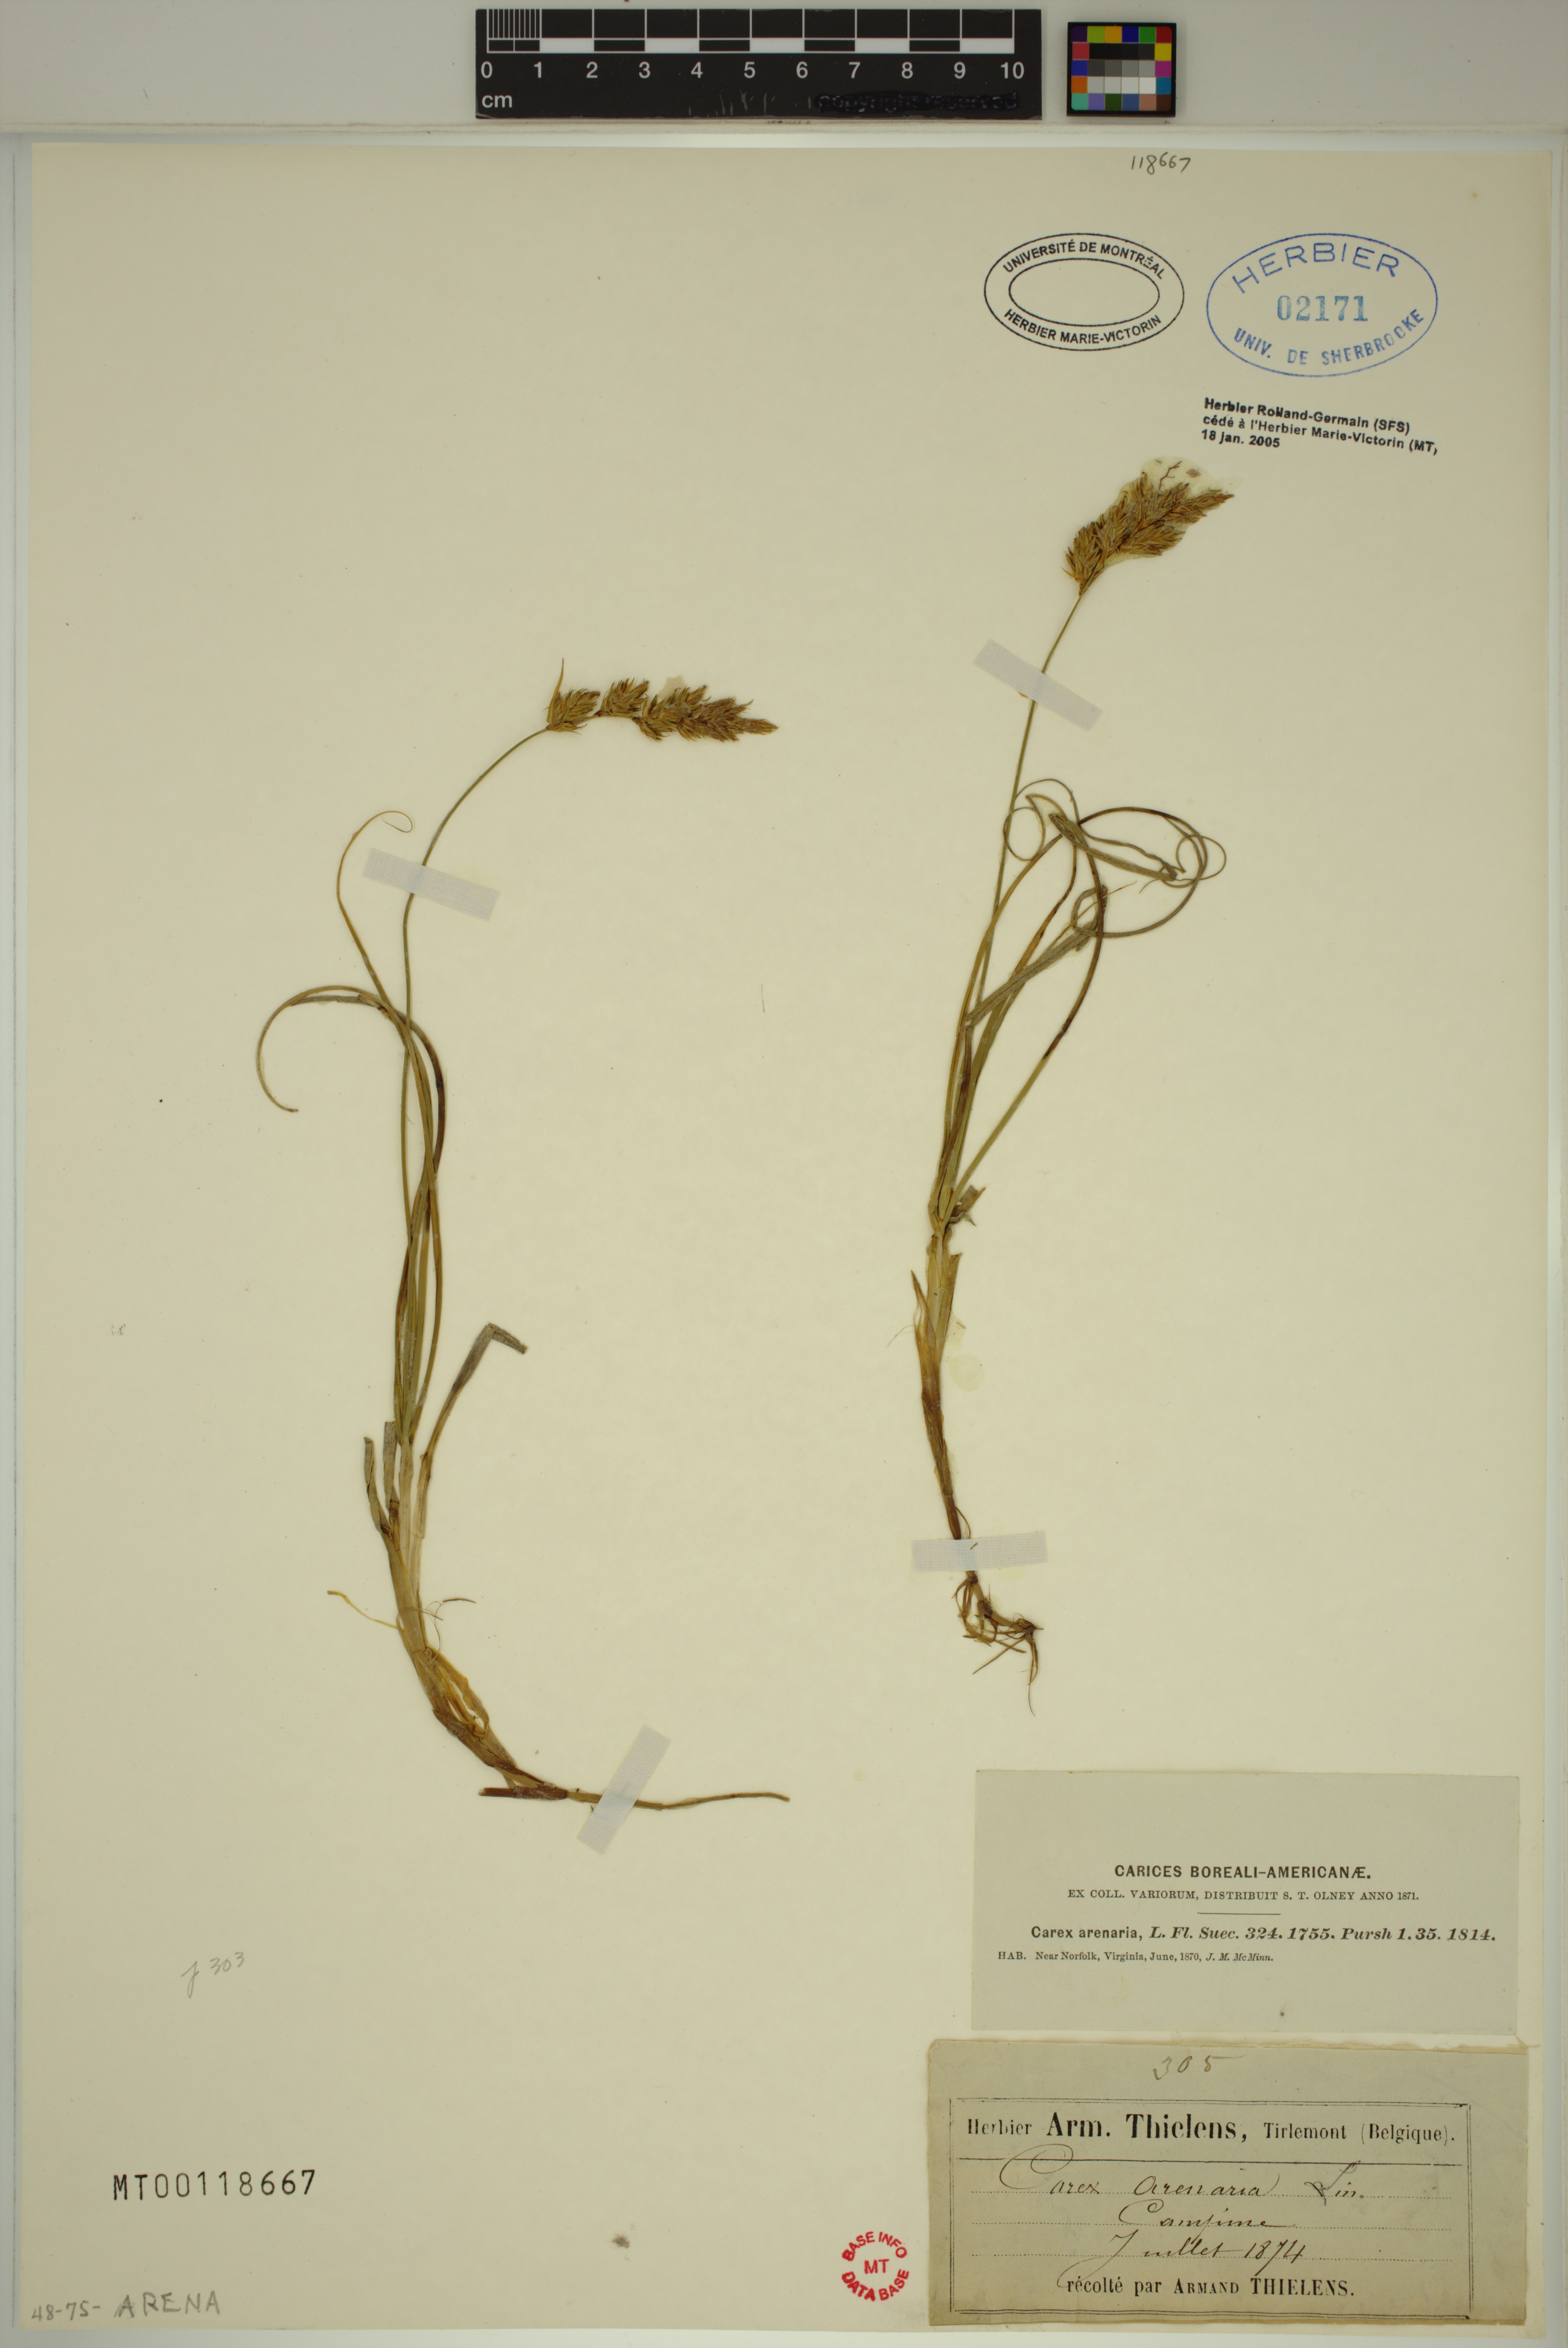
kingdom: Plantae
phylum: Tracheophyta
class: Liliopsida
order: Poales
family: Cyperaceae
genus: Carex
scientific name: Carex arenaria
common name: Sand sedge
